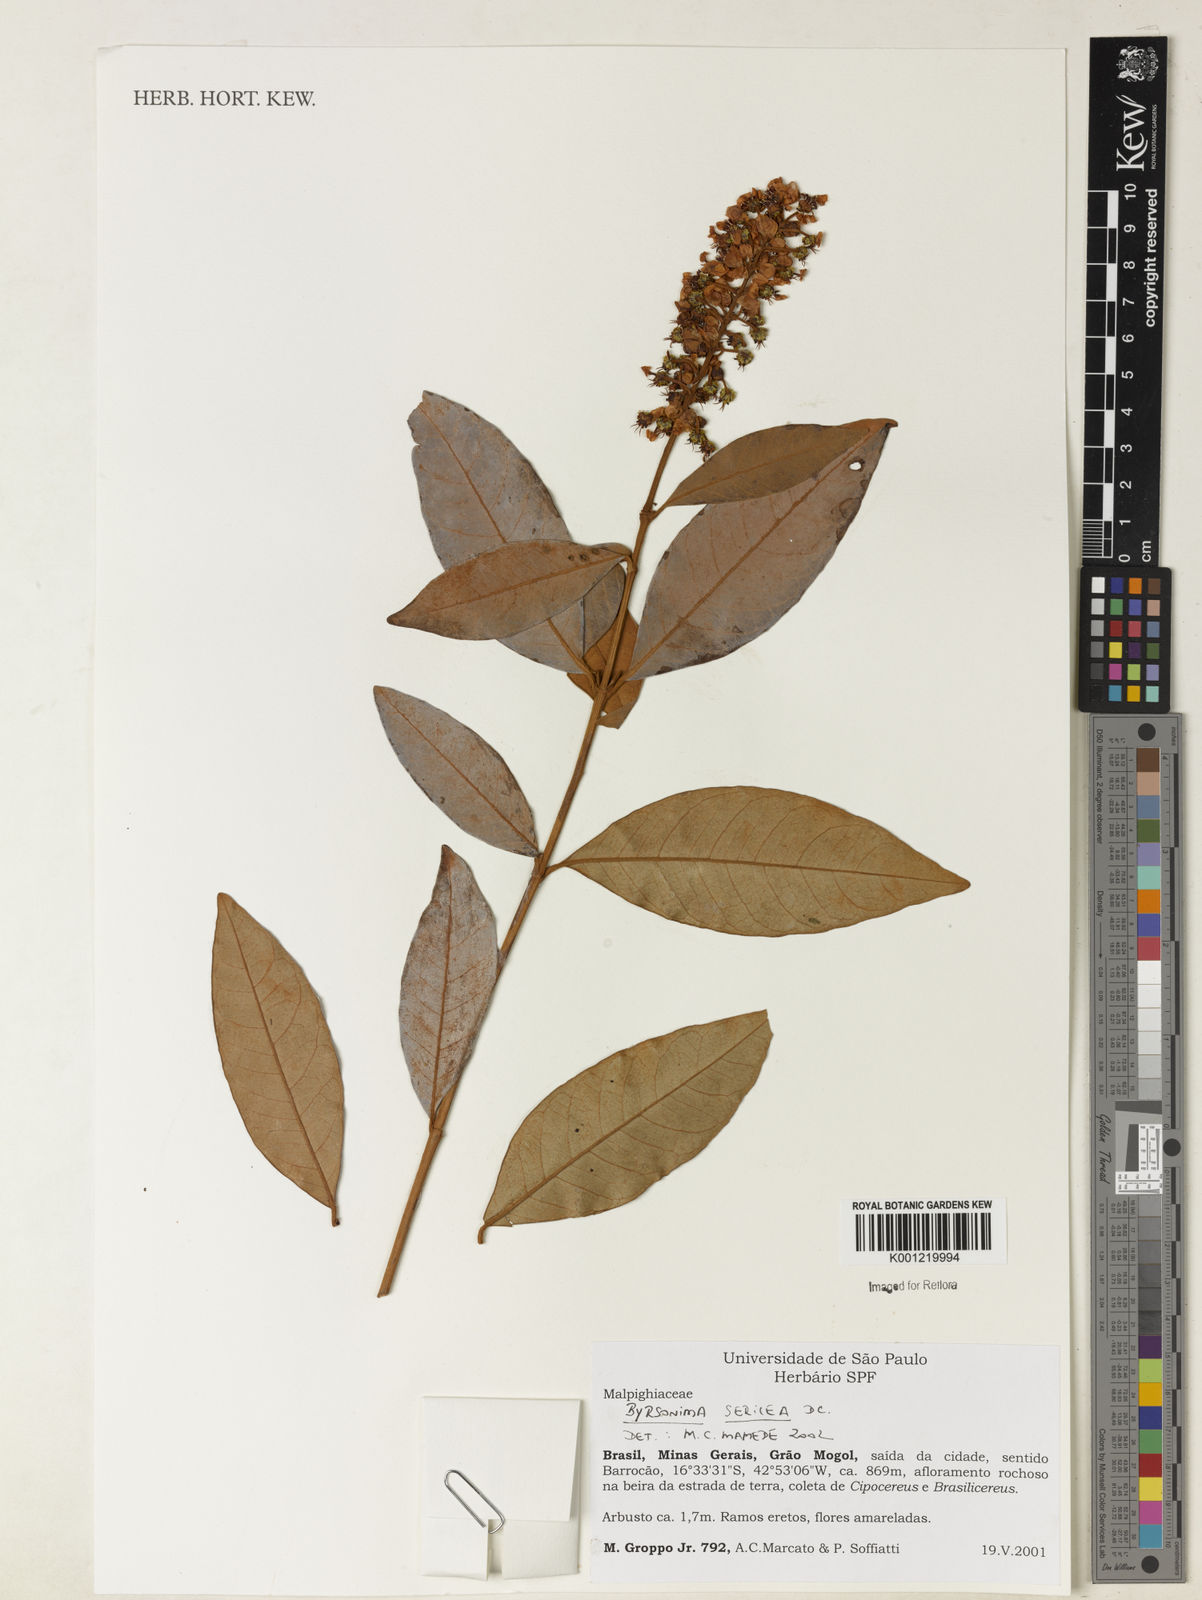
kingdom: Plantae
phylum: Tracheophyta
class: Magnoliopsida
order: Malpighiales
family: Malpighiaceae
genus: Byrsonima
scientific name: Byrsonima sericea
